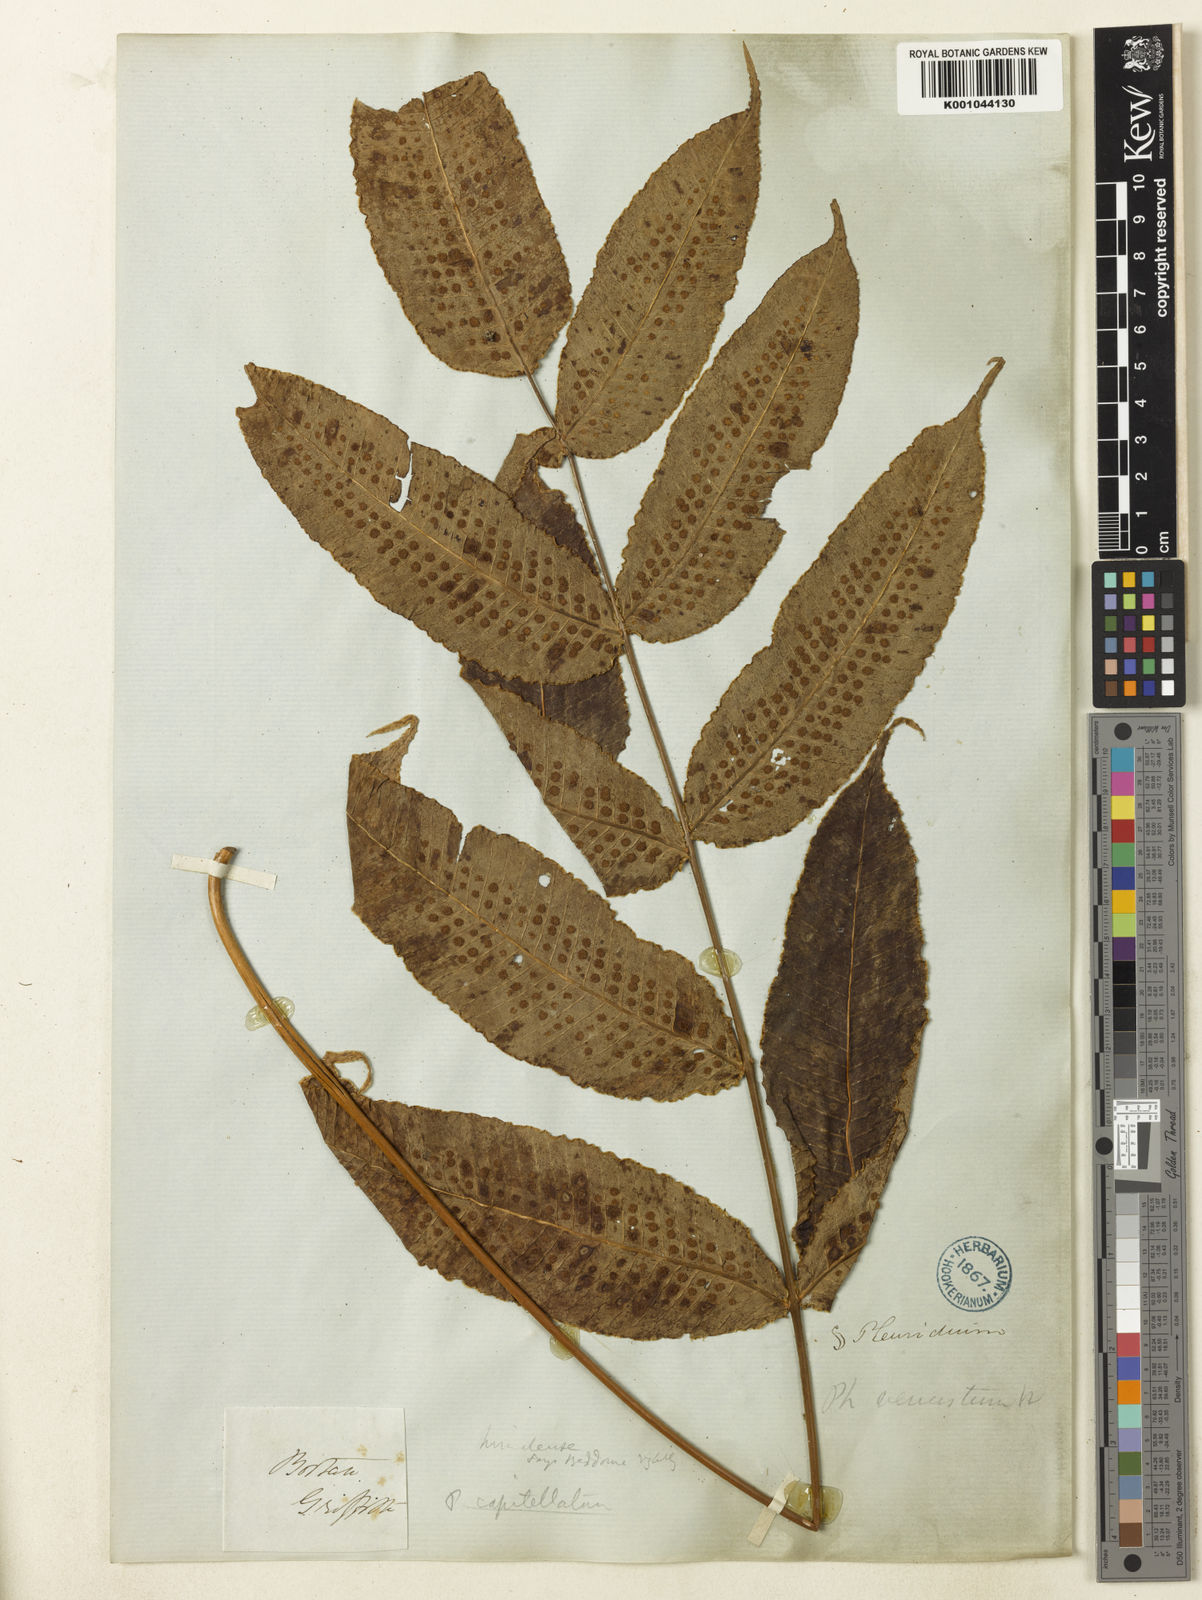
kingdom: Plantae
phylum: Tracheophyta
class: Polypodiopsida
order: Polypodiales
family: Polypodiaceae
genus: Selliguea
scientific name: Selliguea wardii
